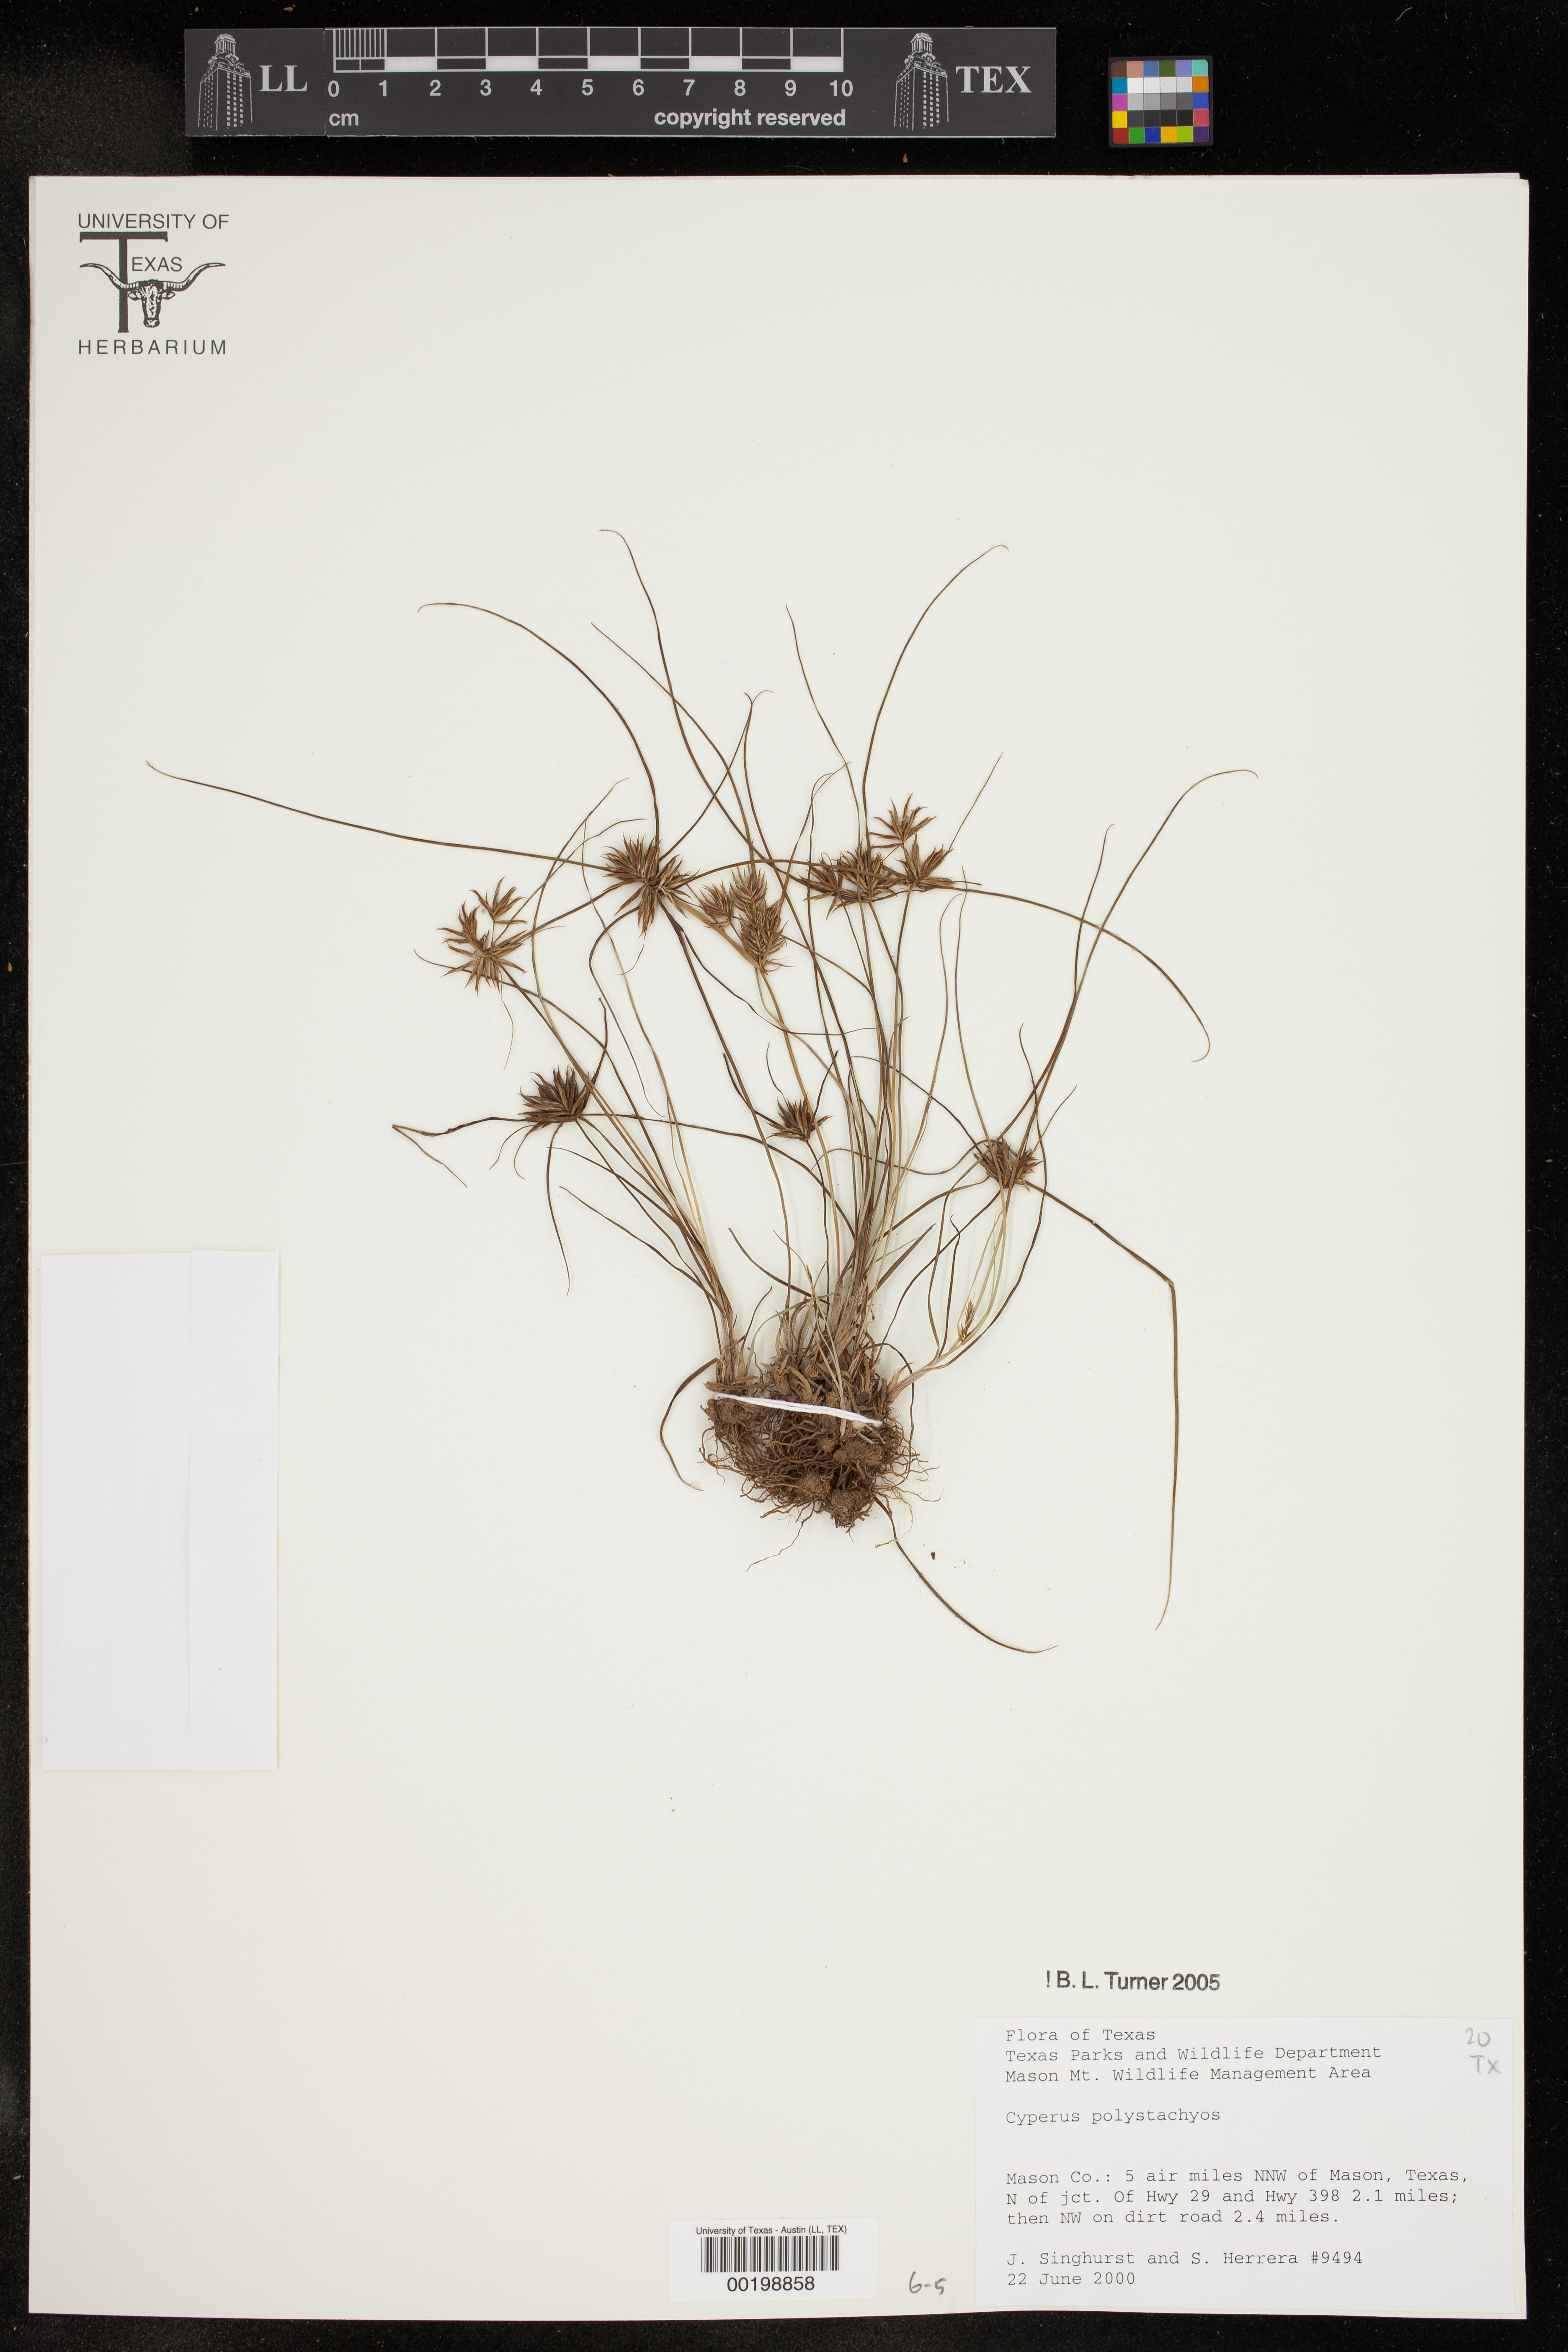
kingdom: Plantae
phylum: Tracheophyta
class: Liliopsida
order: Poales
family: Cyperaceae
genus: Cyperus
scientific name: Cyperus polystachyos
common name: Bunchy flat sedge
